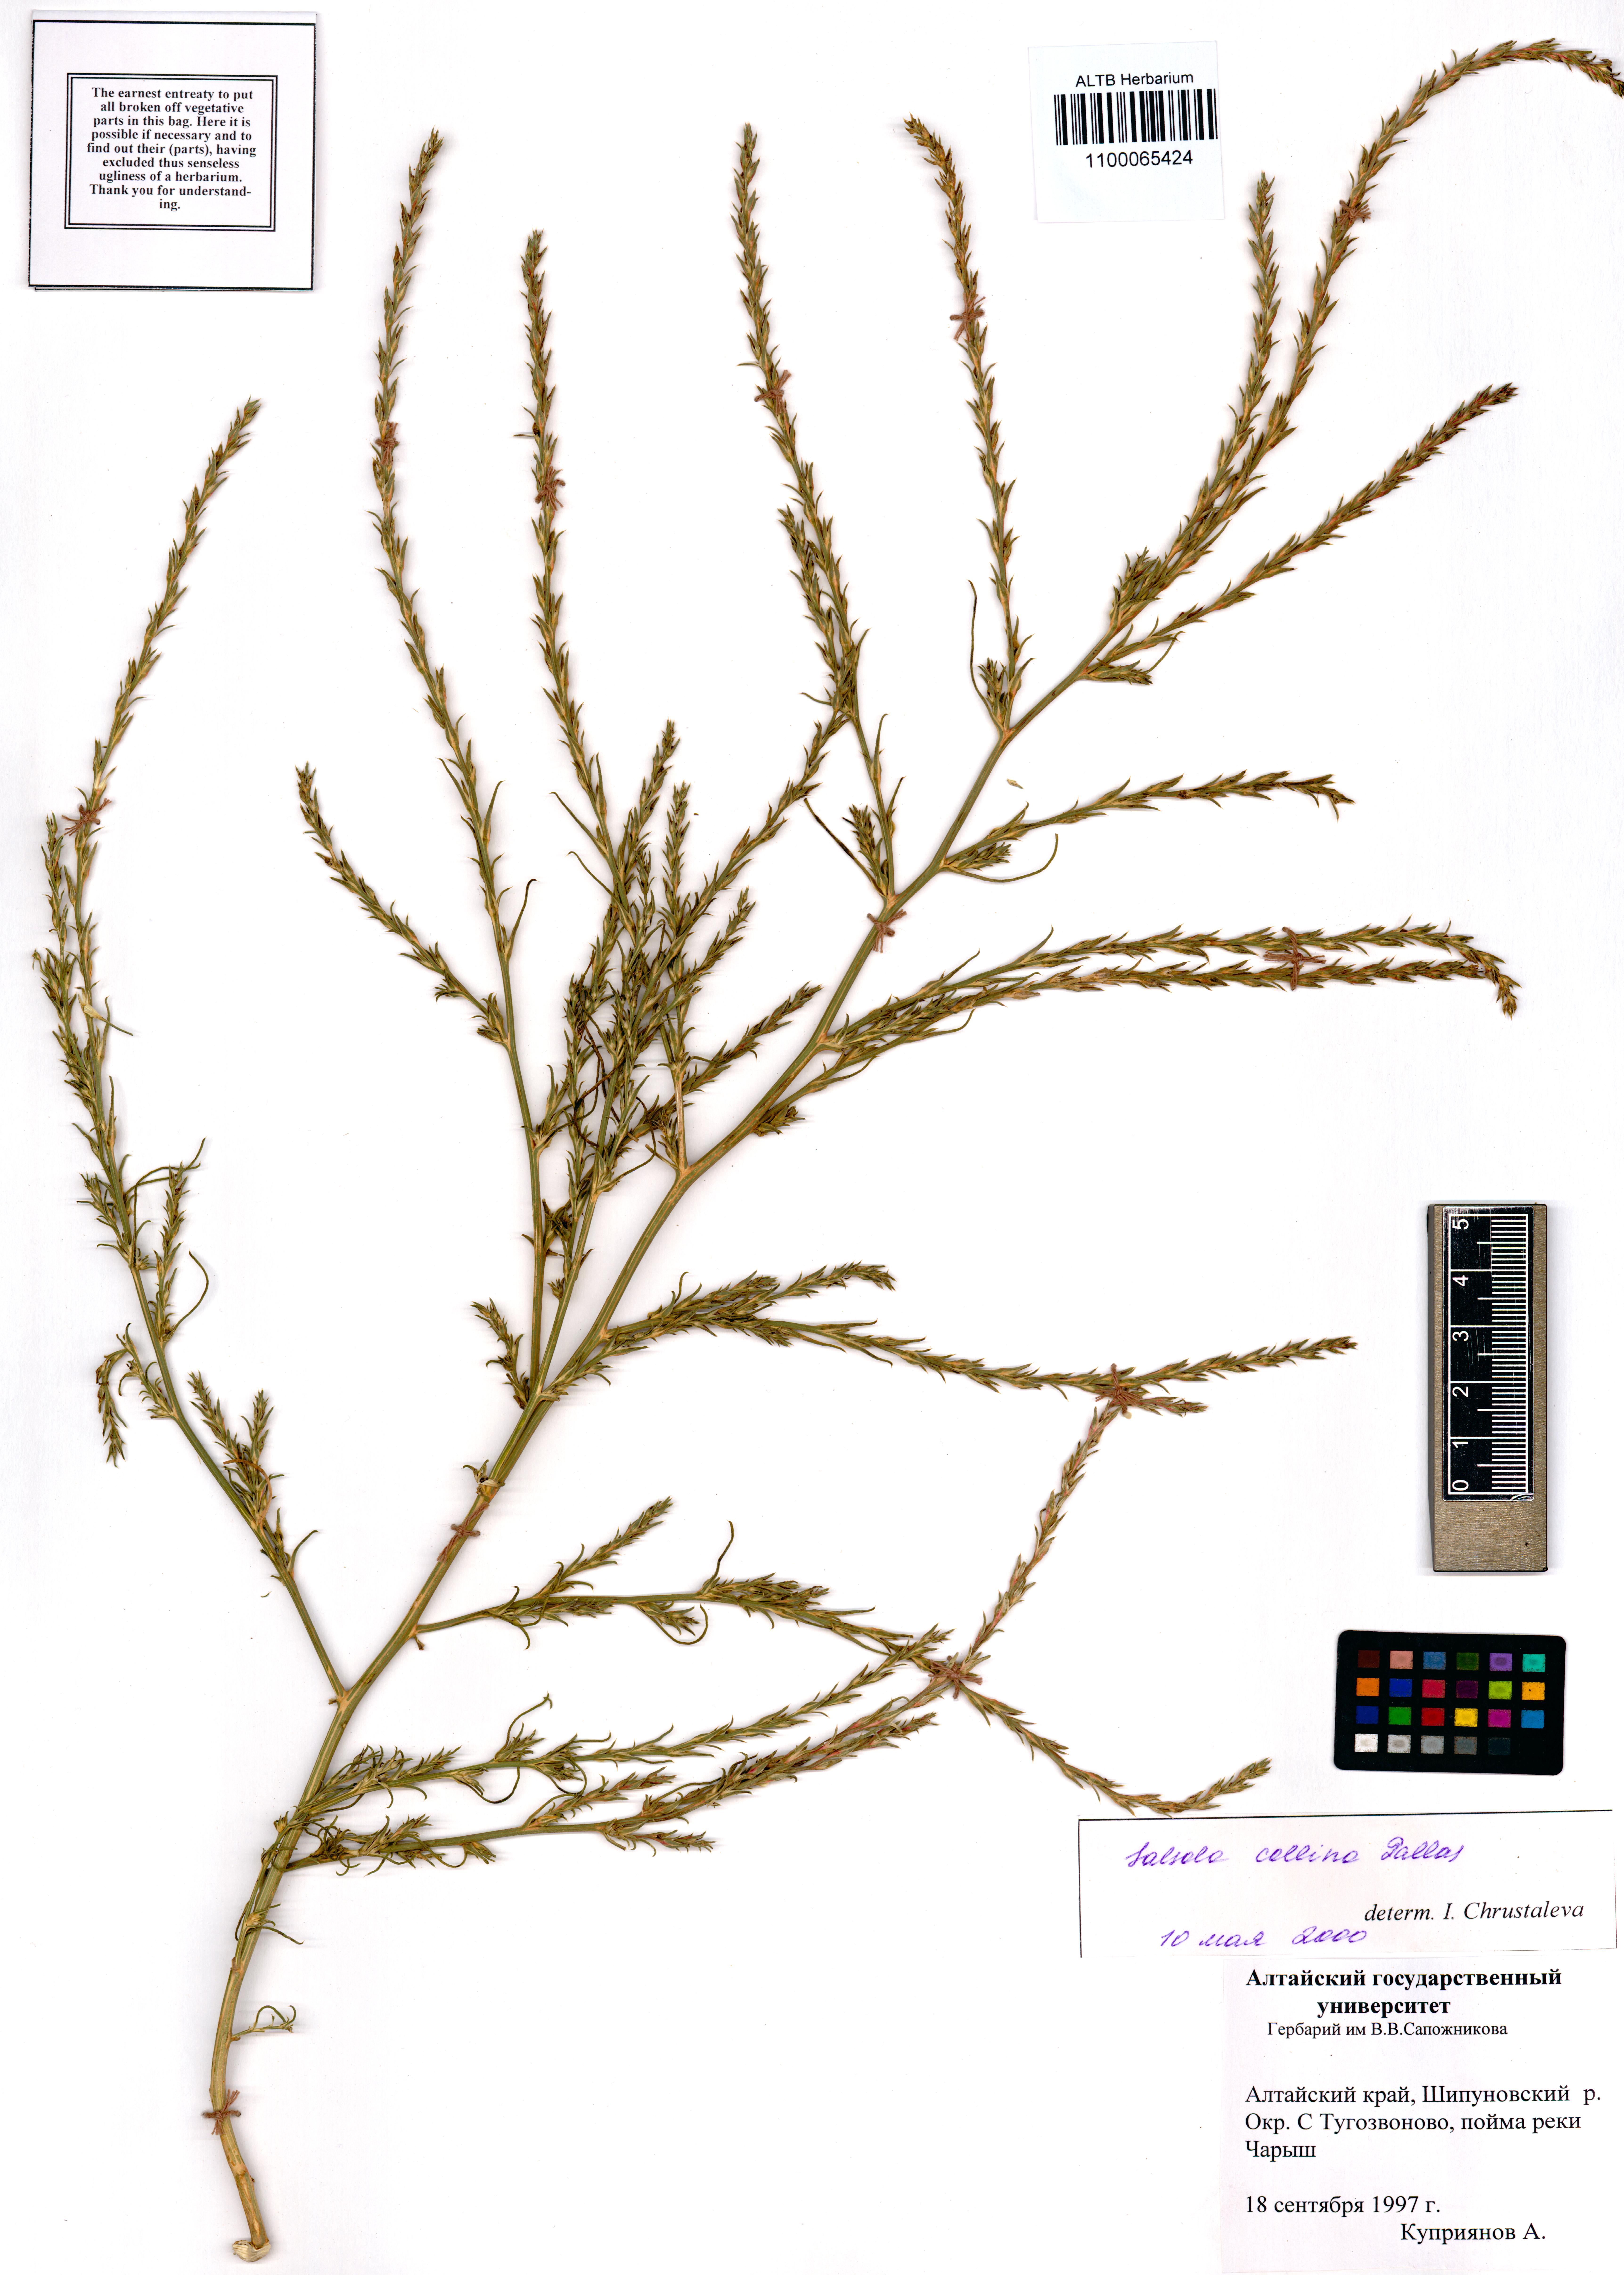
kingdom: Plantae
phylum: Tracheophyta
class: Magnoliopsida
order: Caryophyllales
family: Amaranthaceae
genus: Salsola
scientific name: Salsola collina
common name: Tumbleweed
